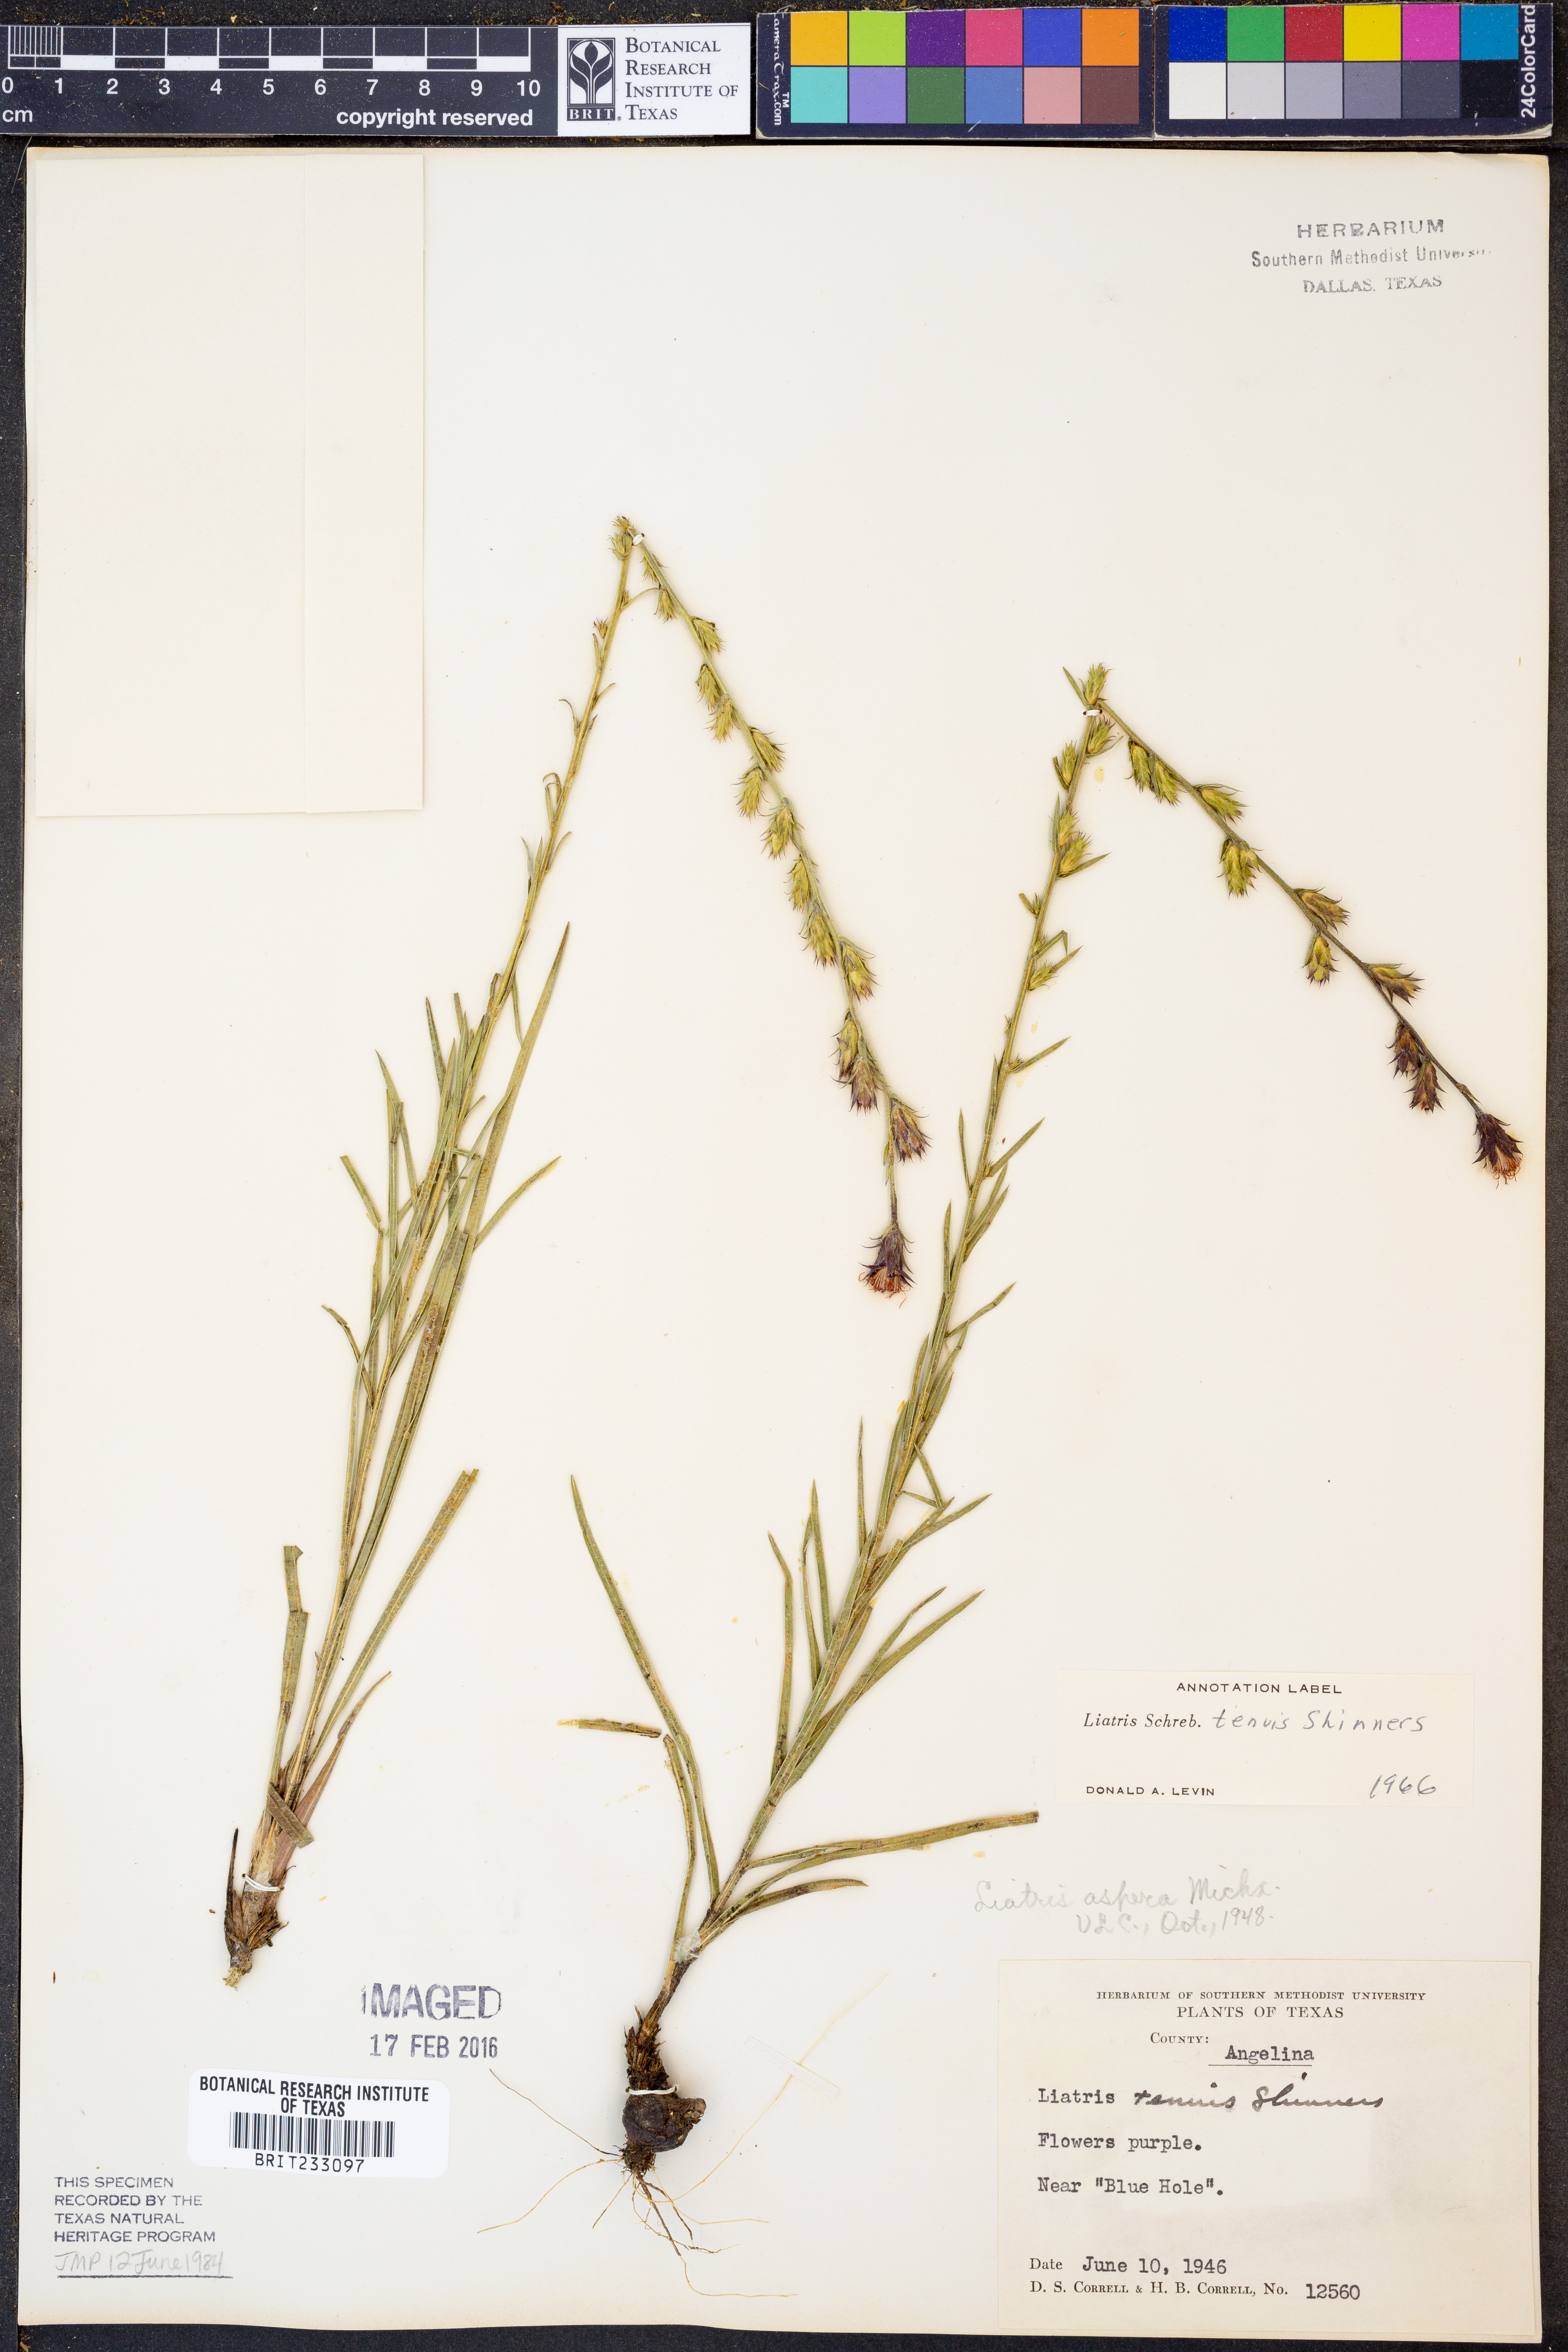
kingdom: Plantae
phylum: Tracheophyta
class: Magnoliopsida
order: Asterales
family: Asteraceae
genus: Liatris
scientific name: Liatris tenuis
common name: Shinner's gayfeather
